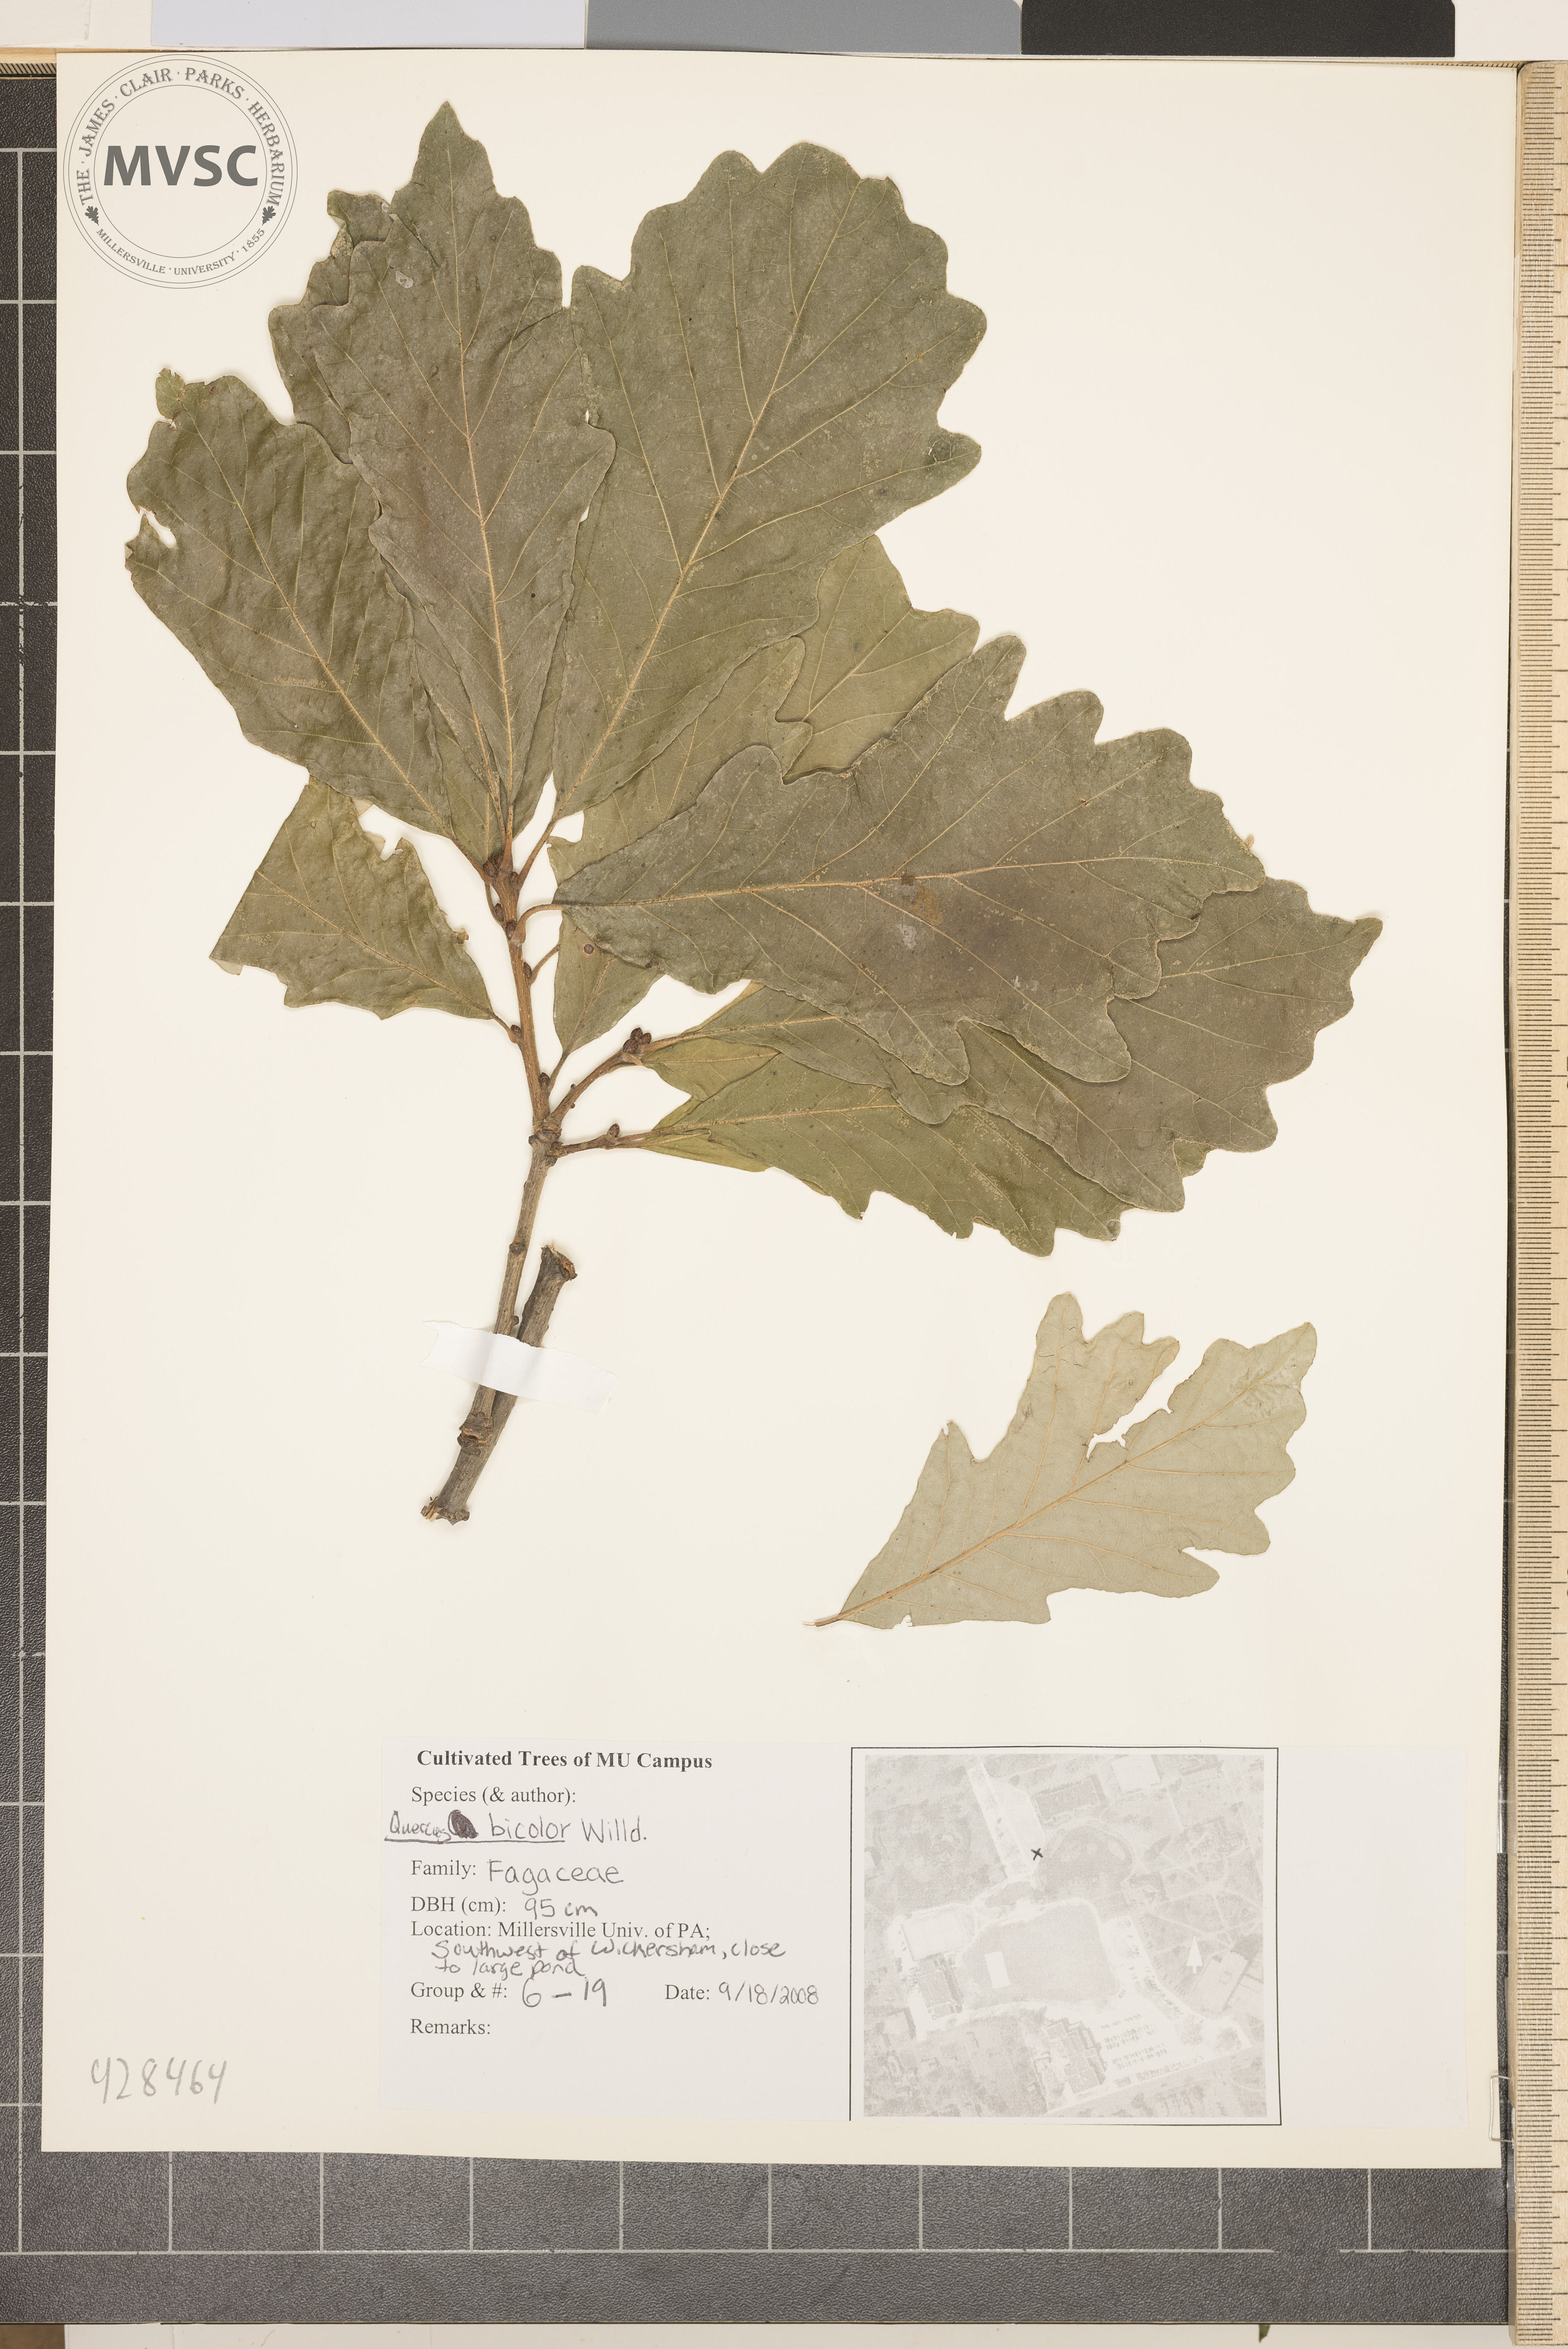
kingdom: Plantae
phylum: Tracheophyta
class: Magnoliopsida
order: Fagales
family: Fagaceae
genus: Quercus
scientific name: Quercus bicolor
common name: Swamp White Oak
